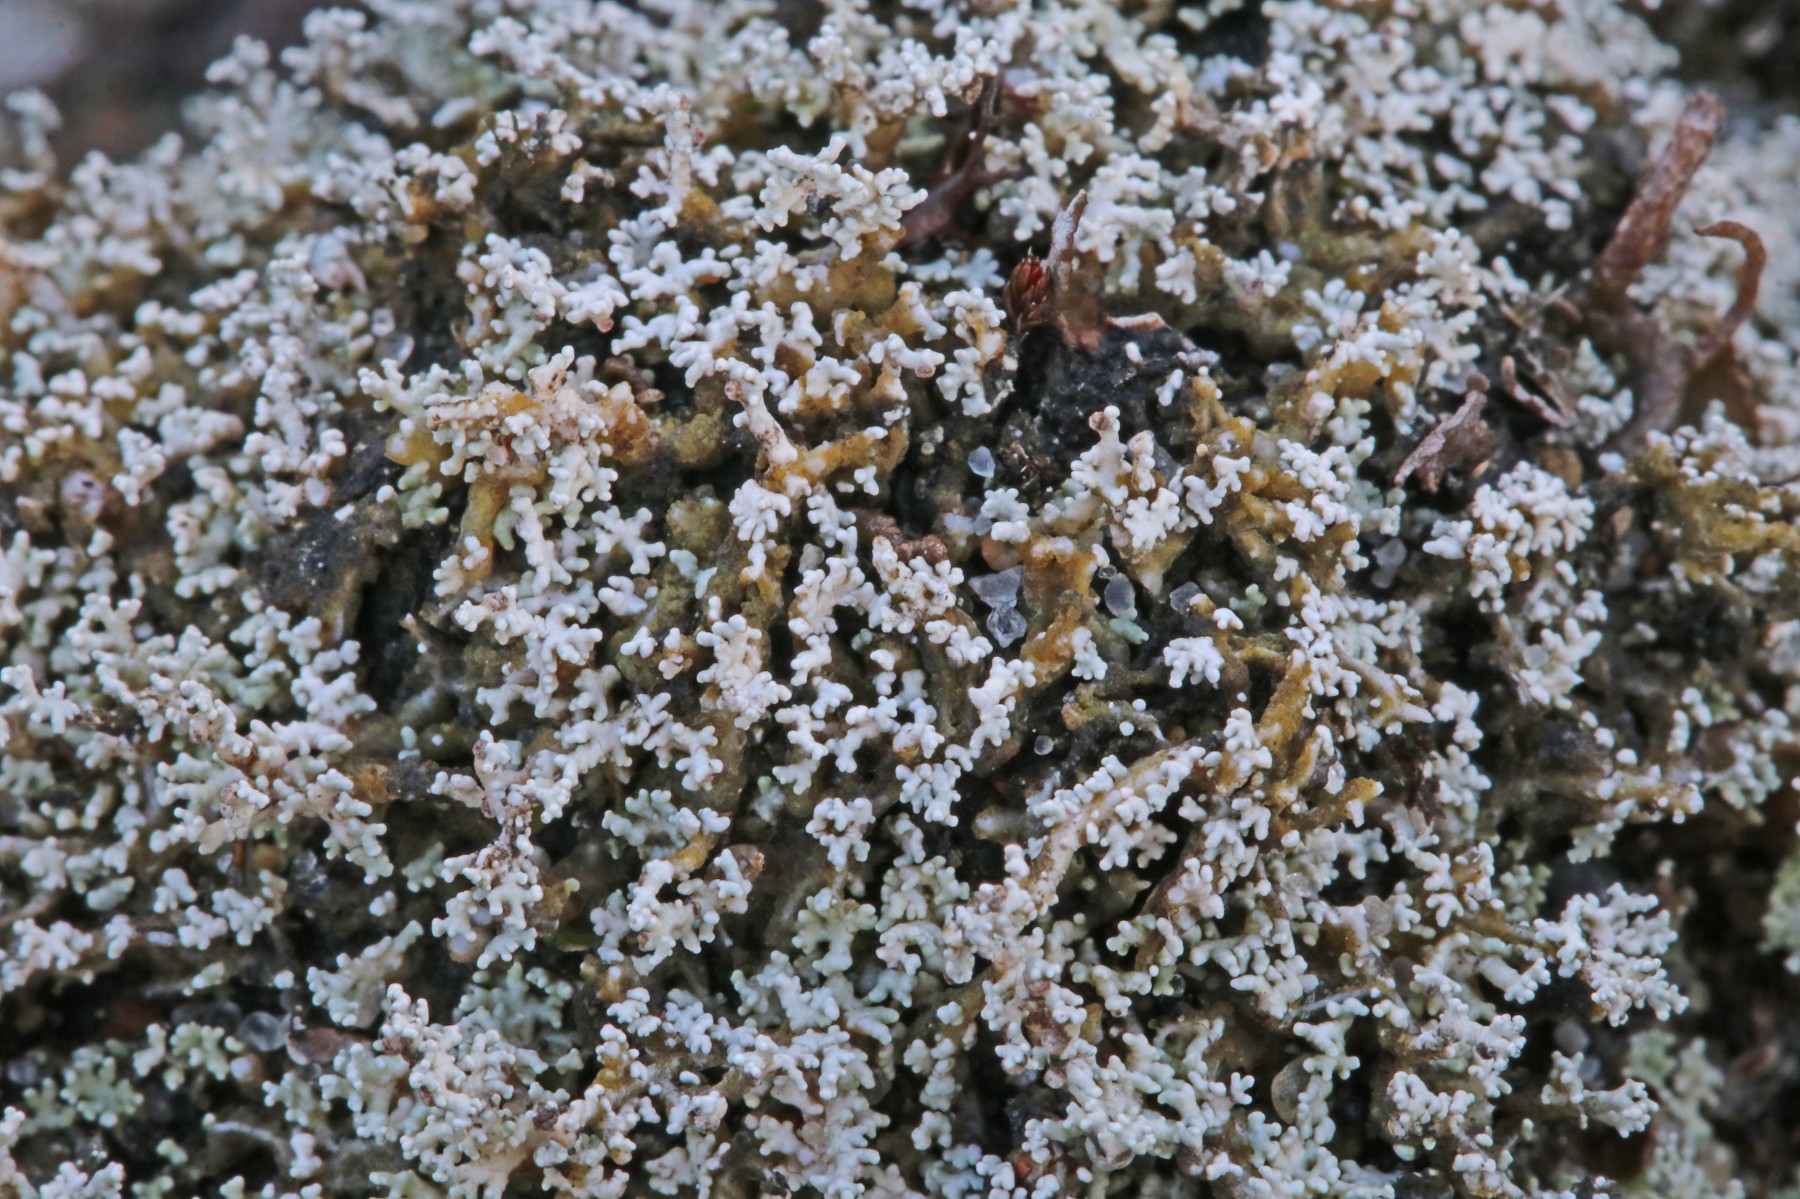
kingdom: Fungi
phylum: Ascomycota
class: Lecanoromycetes
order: Lecanorales
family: Stereocaulaceae
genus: Stereocaulon
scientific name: Stereocaulon condensatum
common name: lav korallav
